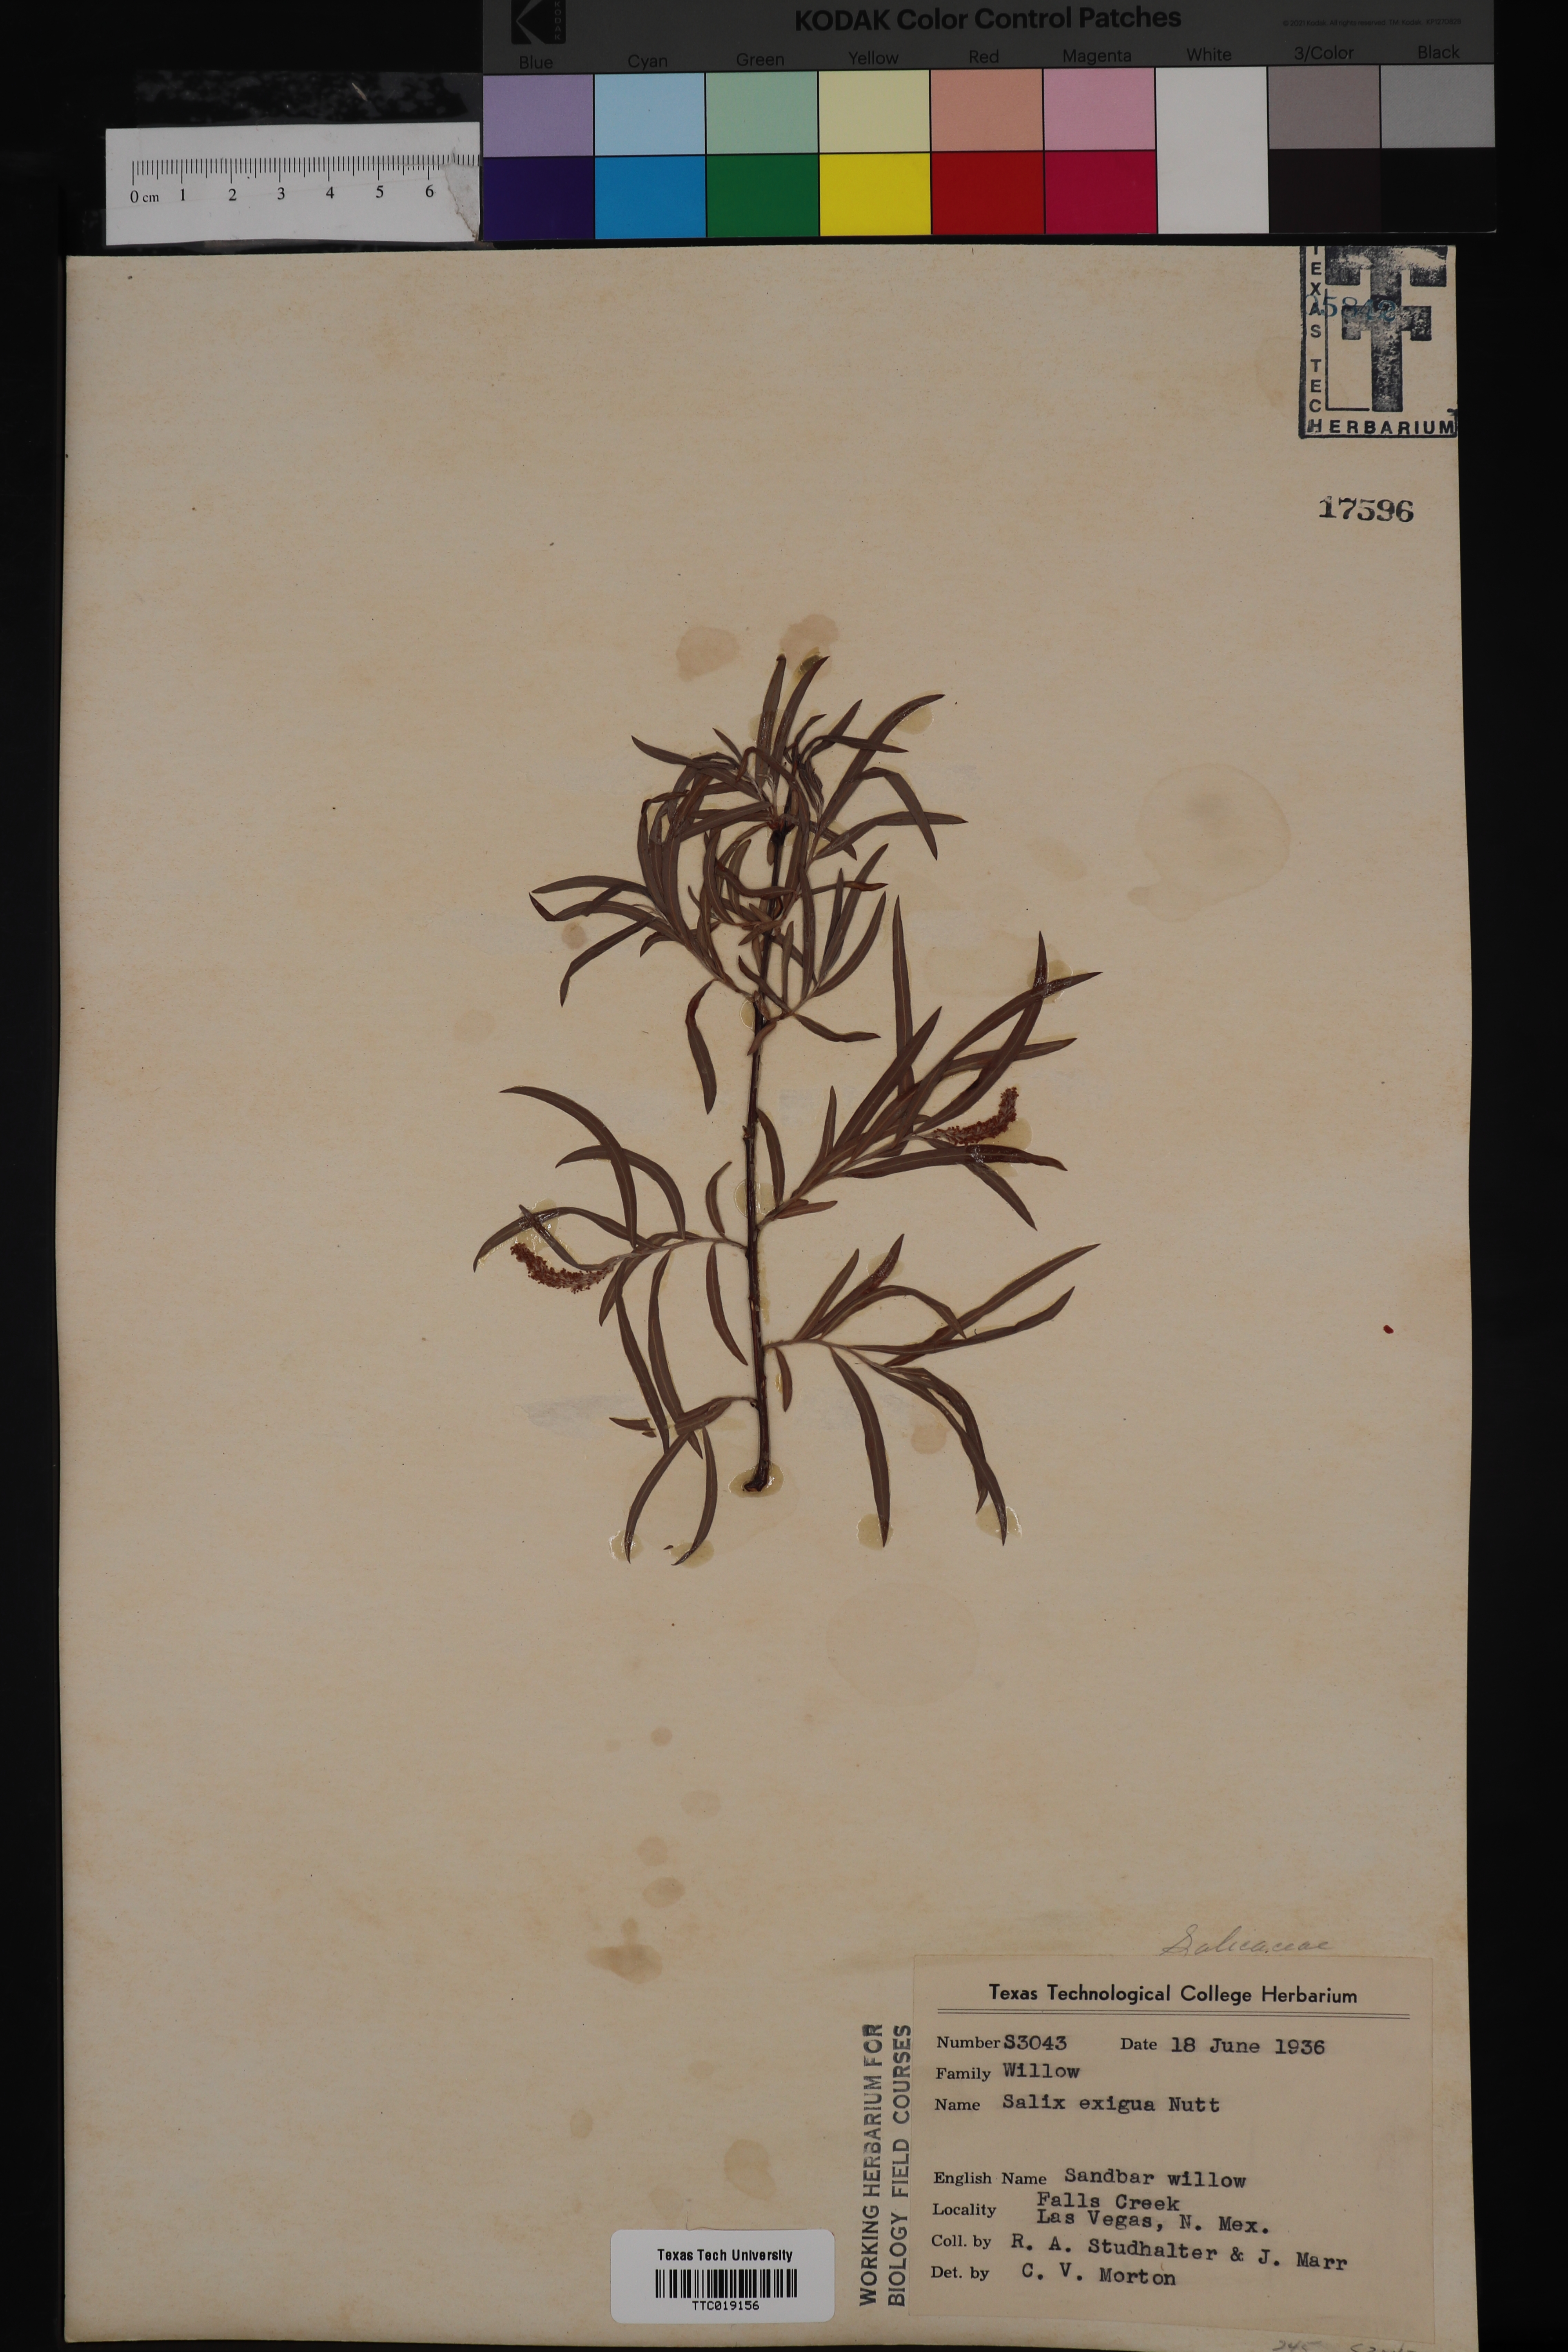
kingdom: Plantae
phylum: Tracheophyta
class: Magnoliopsida
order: Malpighiales
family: Salicaceae
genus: Salix
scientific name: Salix exigua
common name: Coyote willow
